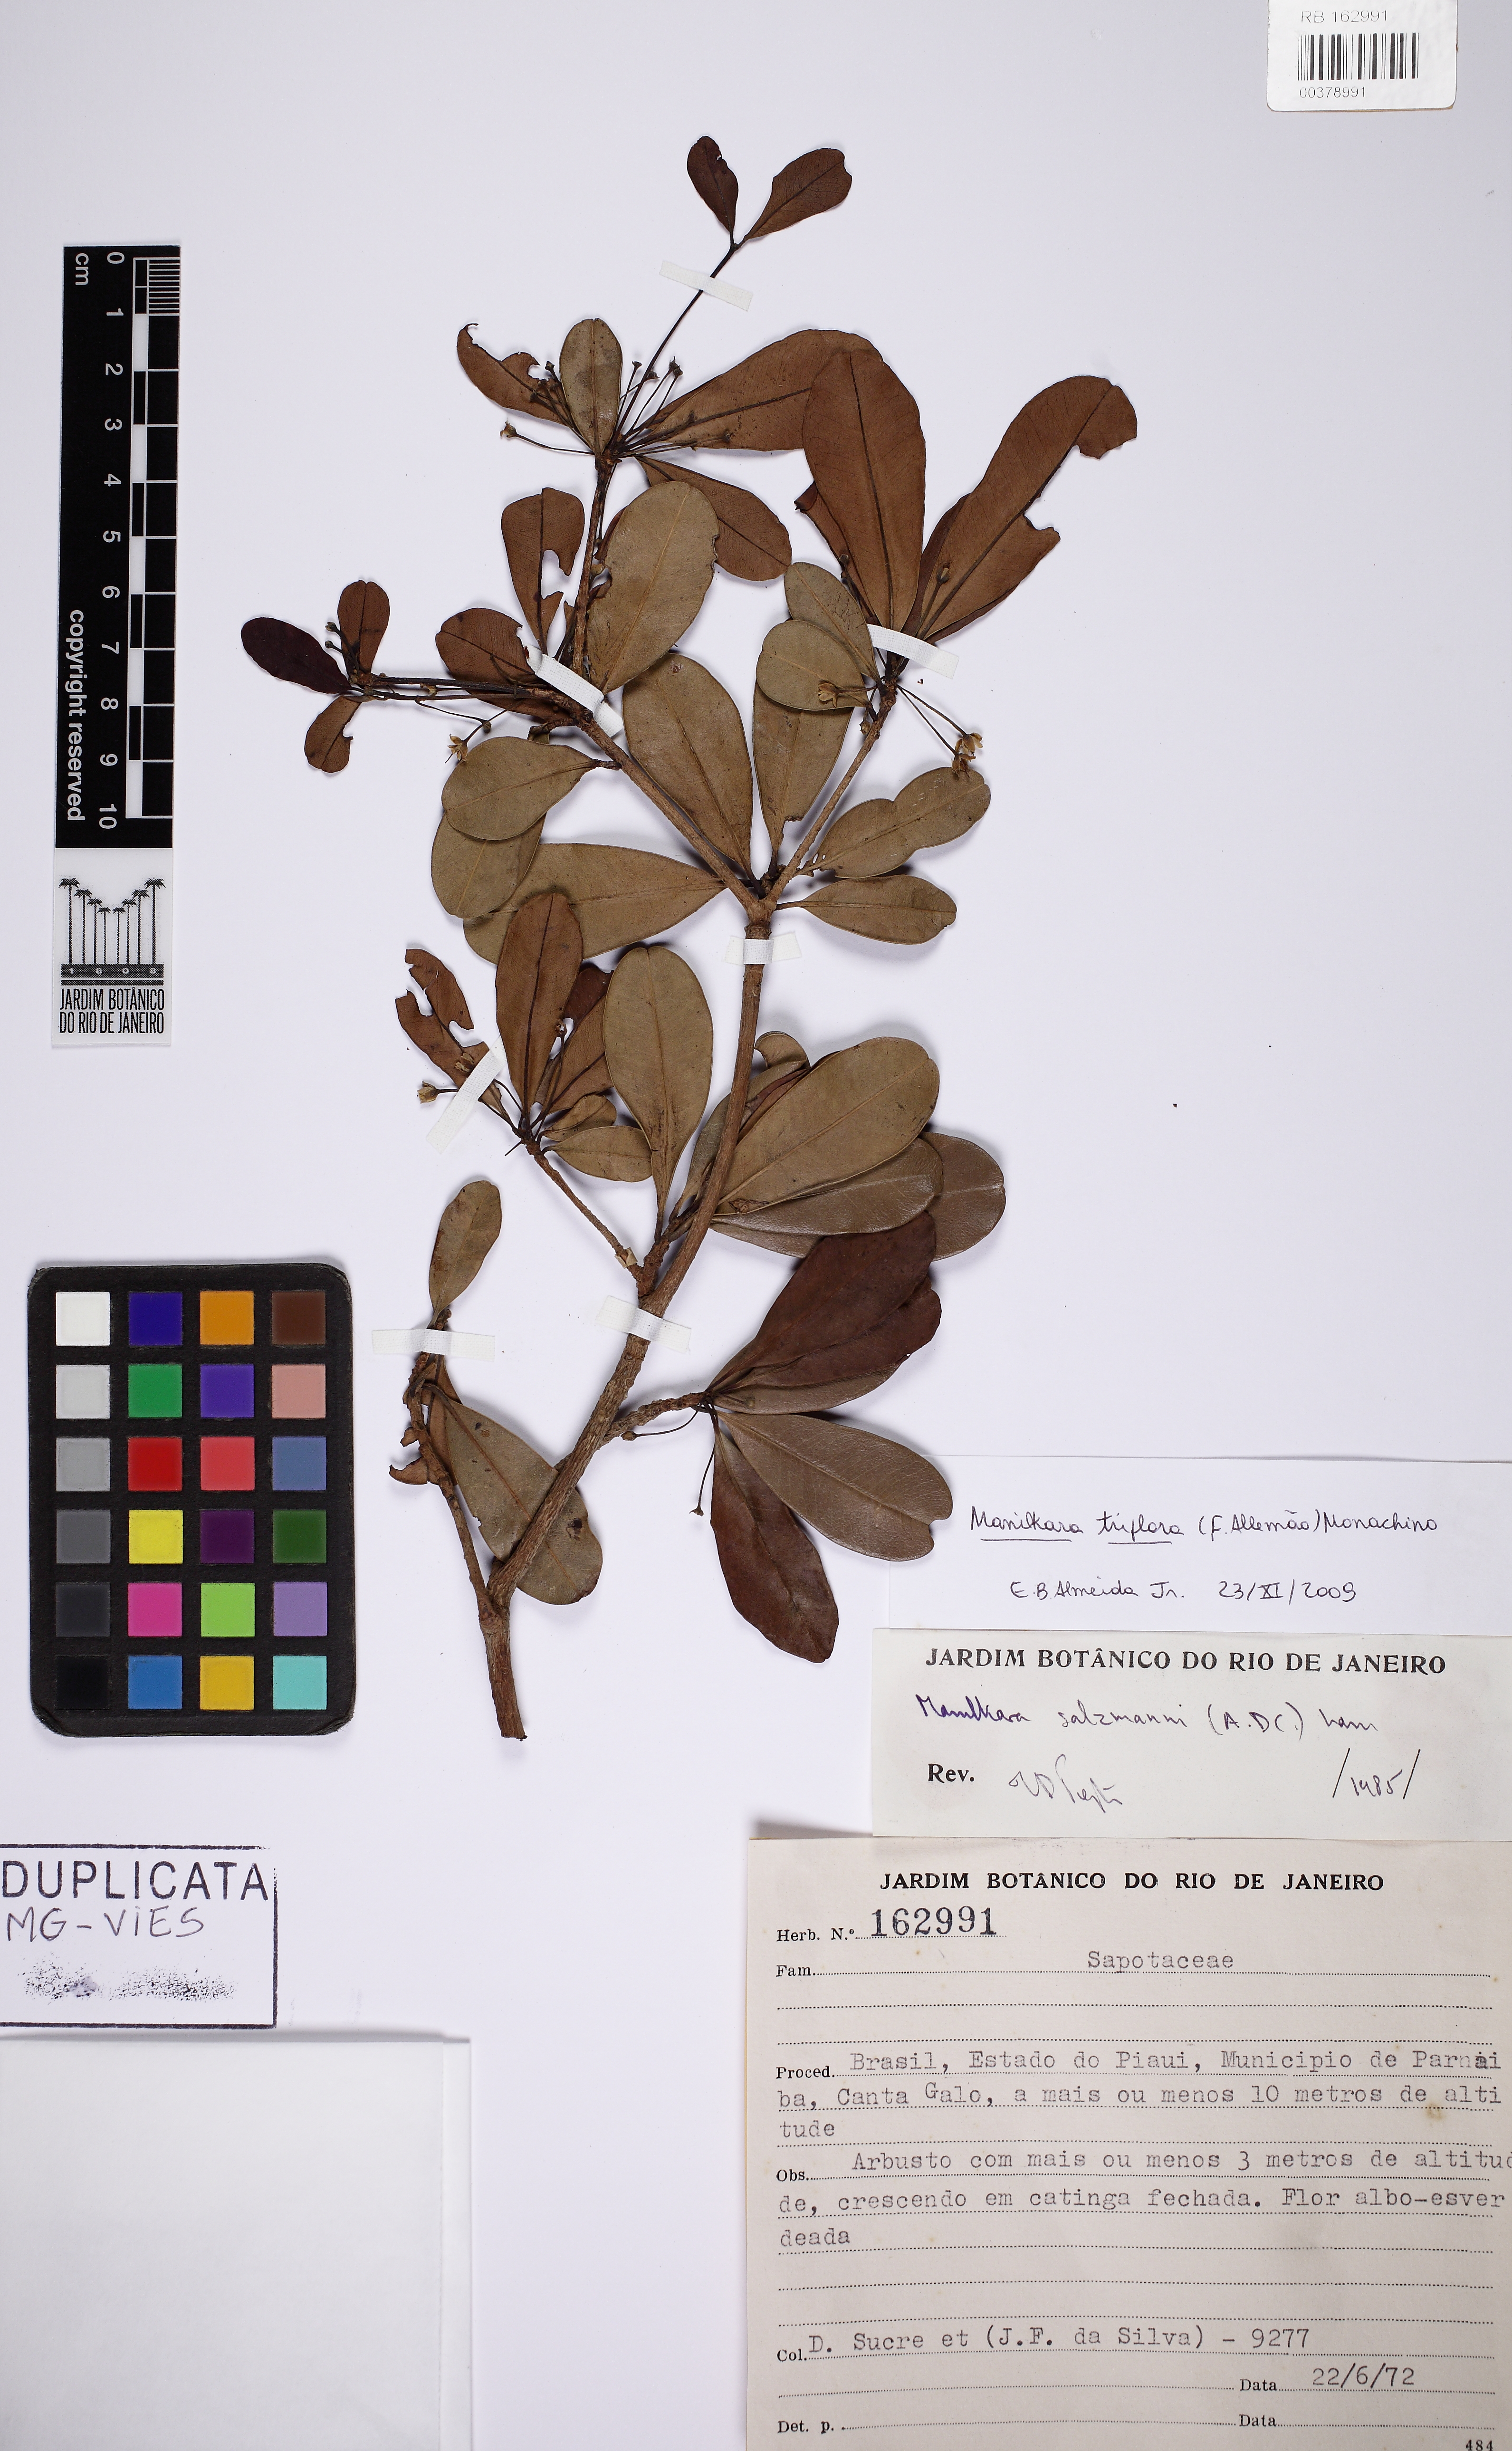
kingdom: Plantae
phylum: Tracheophyta
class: Magnoliopsida
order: Ericales
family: Sapotaceae
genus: Manilkara
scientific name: Manilkara triflora
